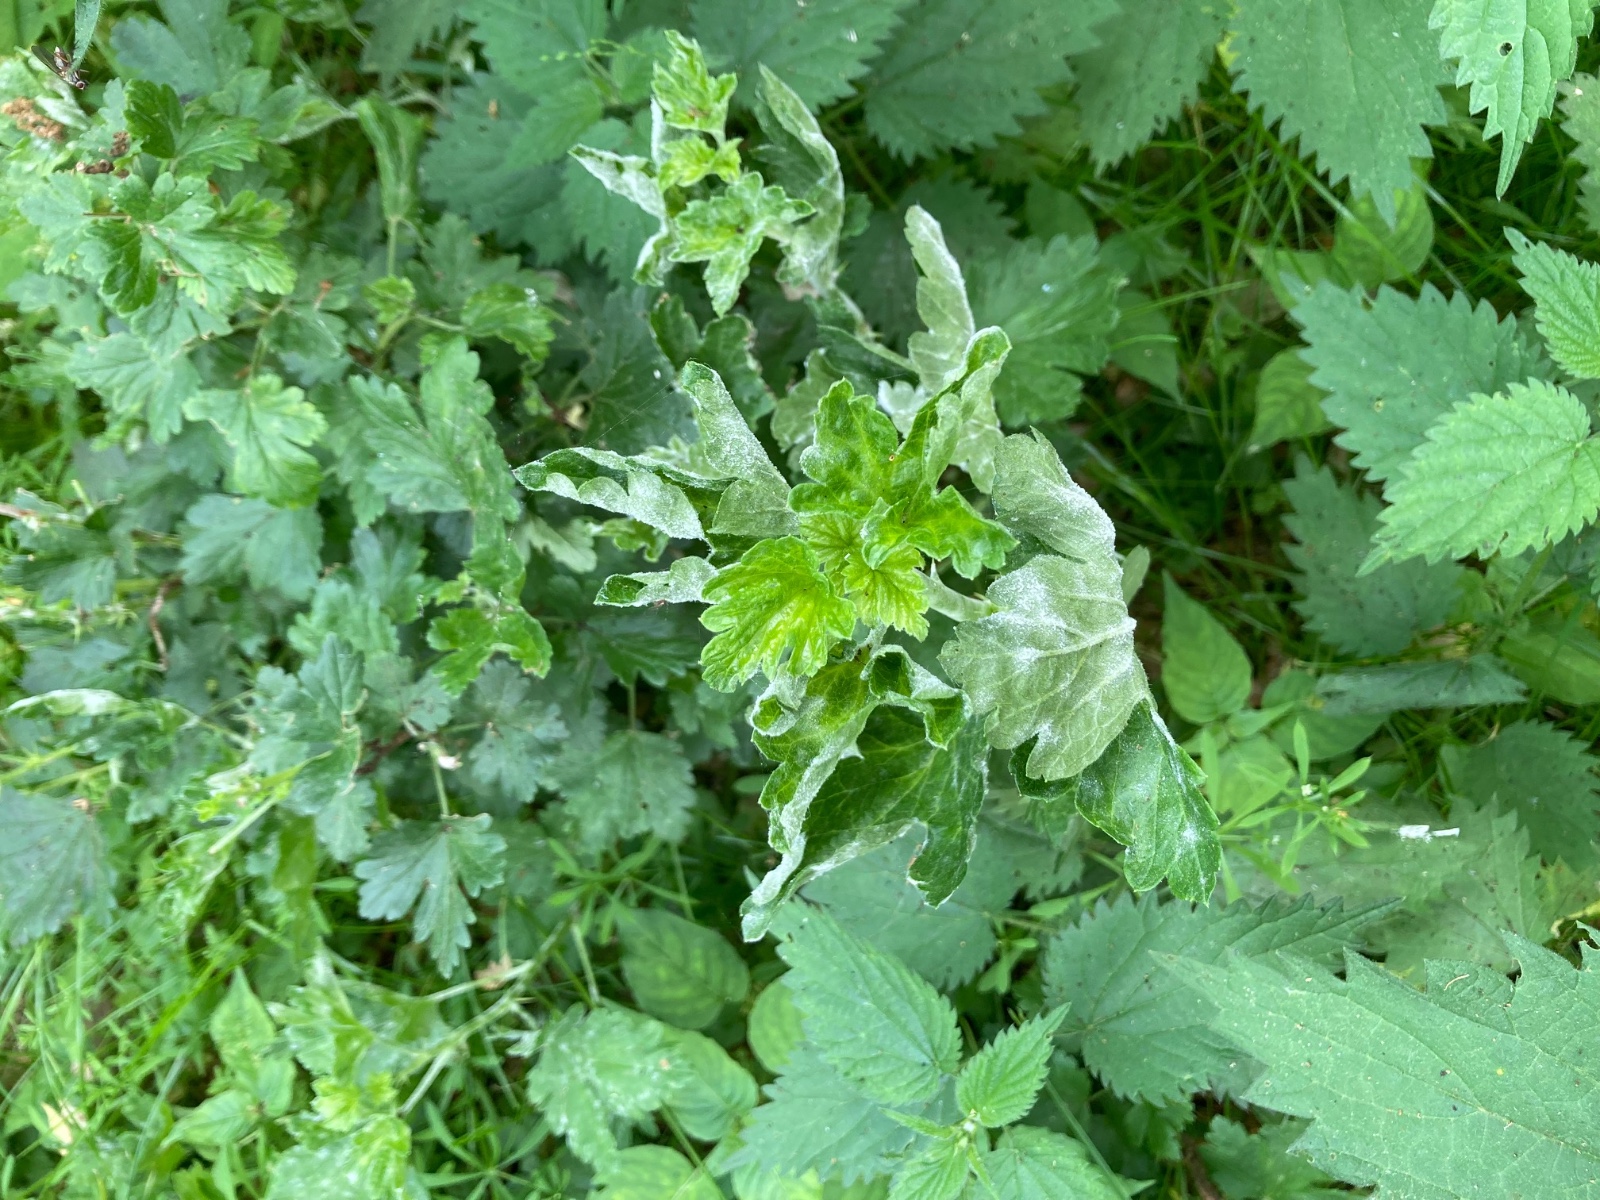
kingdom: Fungi
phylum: Ascomycota
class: Leotiomycetes
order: Helotiales
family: Erysiphaceae
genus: Podosphaera
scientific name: Podosphaera mors-uvae
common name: American gooseberry mildew
